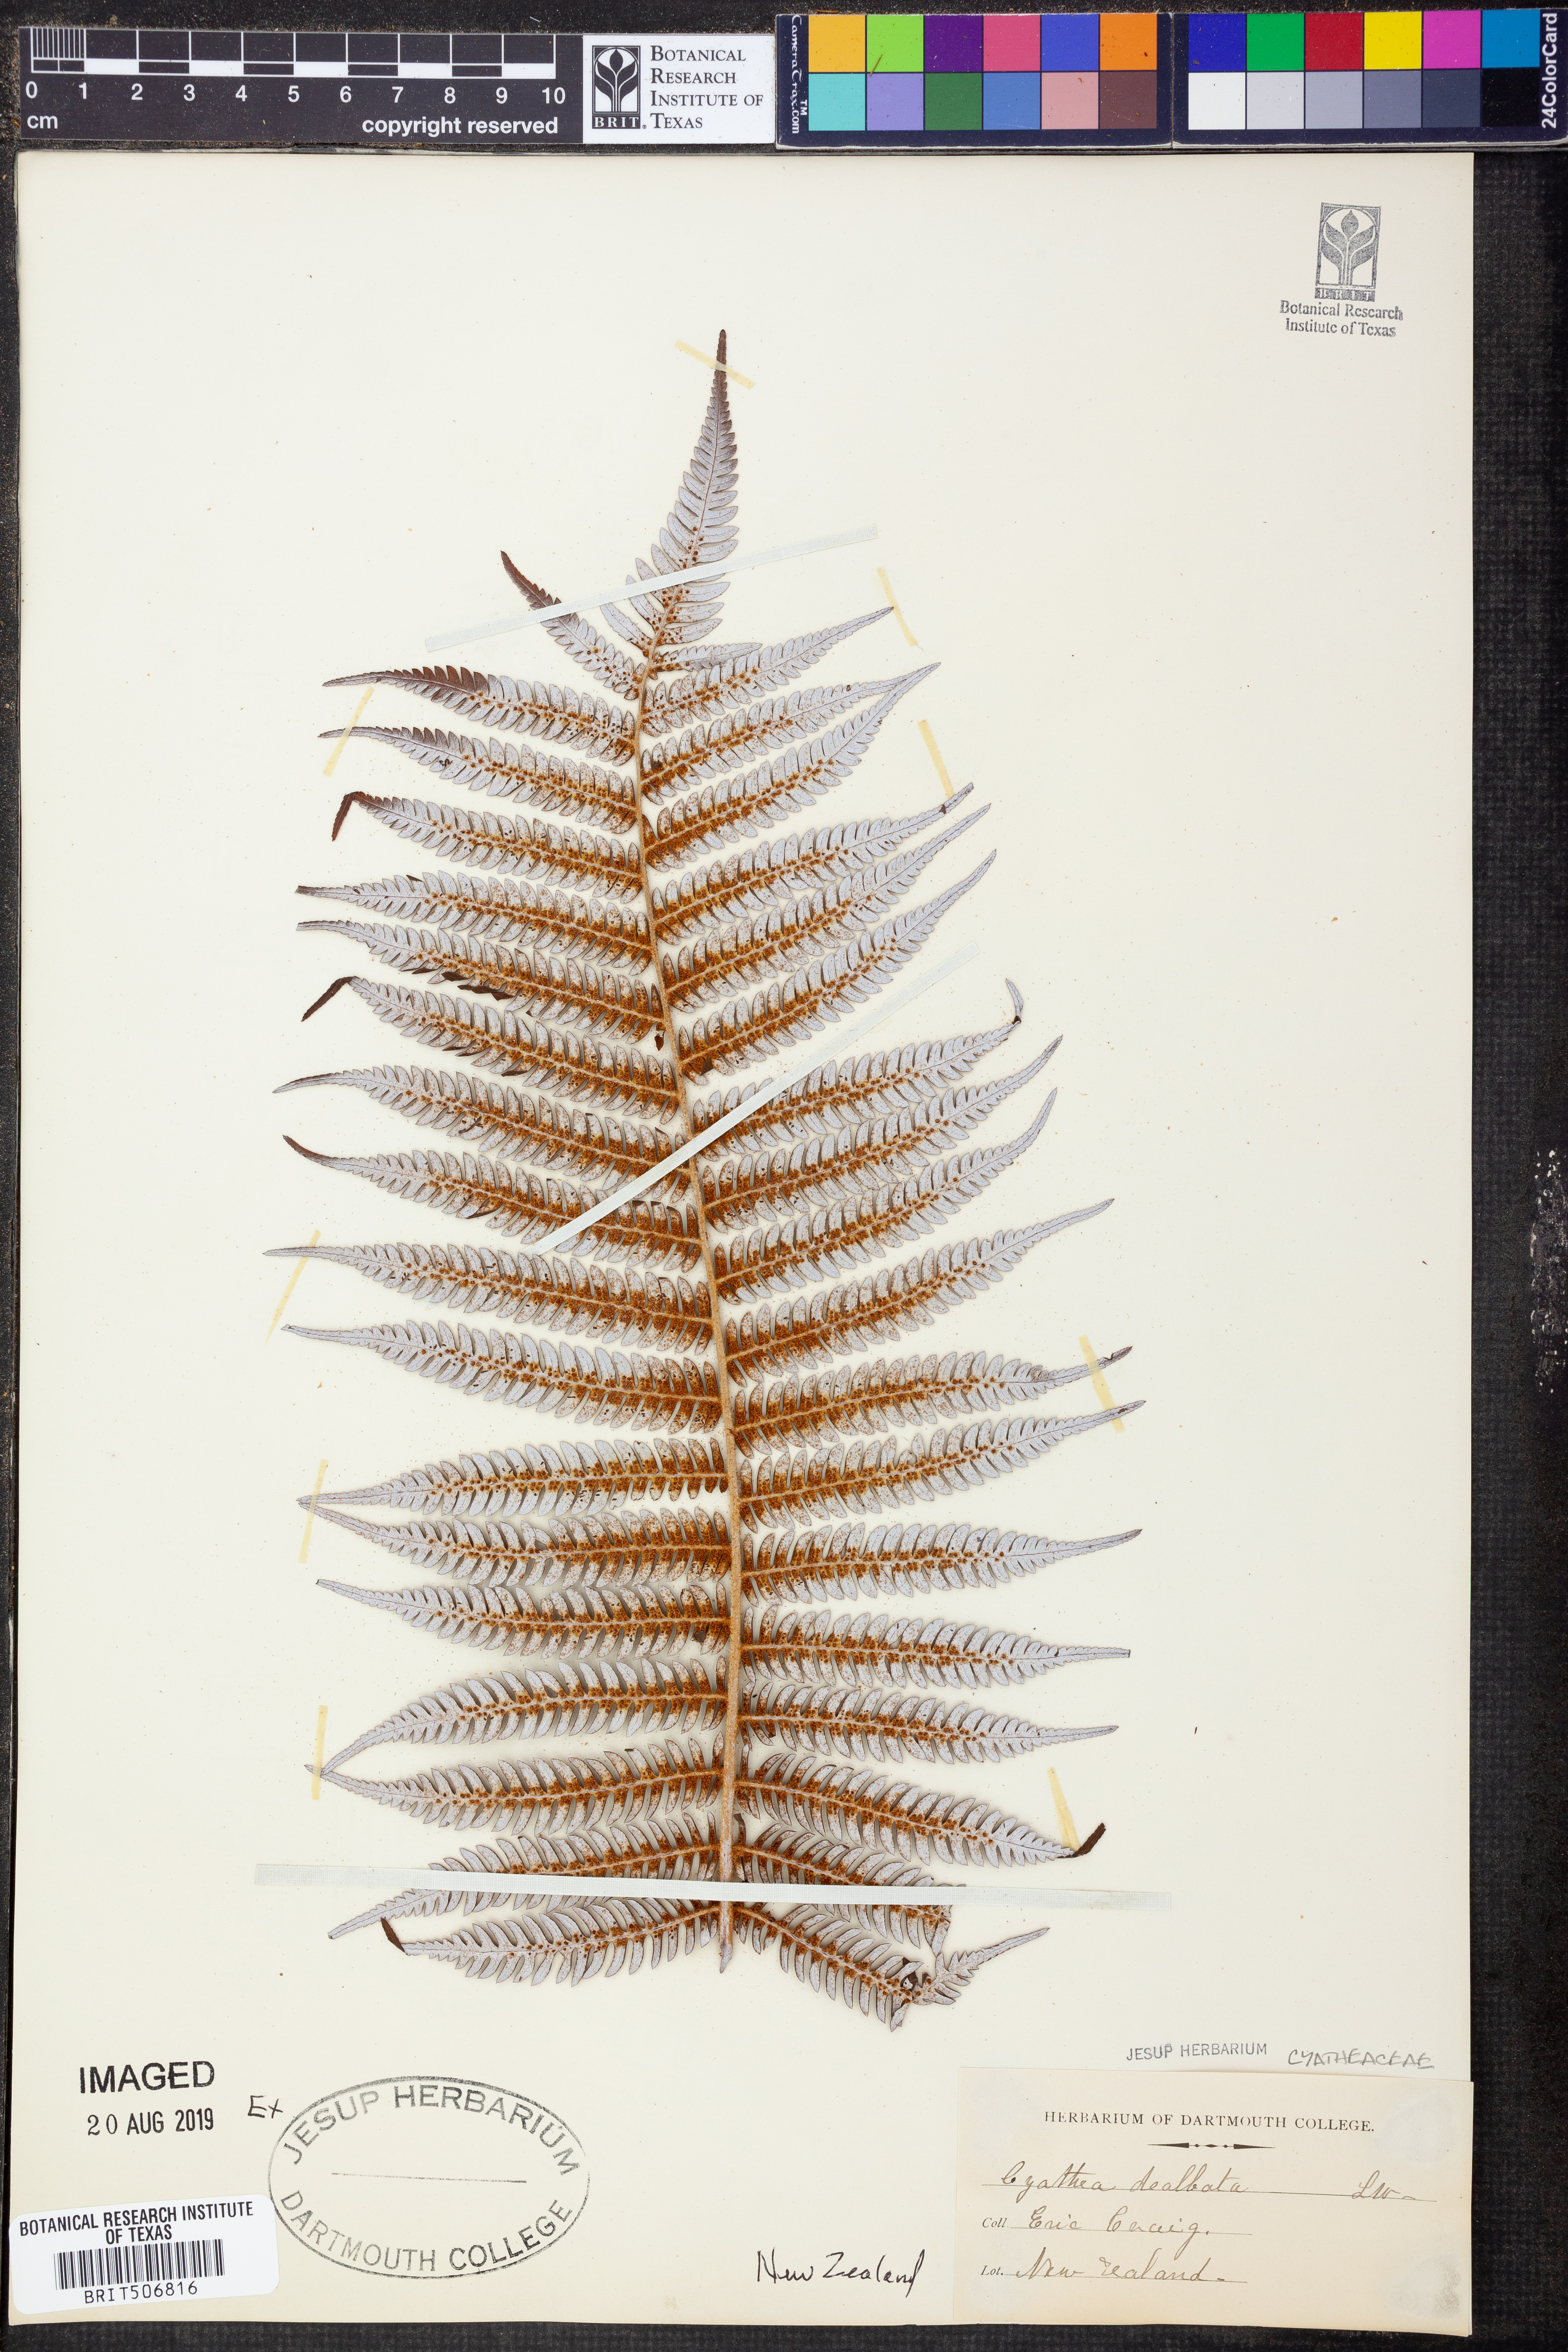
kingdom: Plantae
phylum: Tracheophyta
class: Polypodiopsida
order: Cyatheales
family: Cyatheaceae
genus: Alsophila
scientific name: Alsophila dealbata
